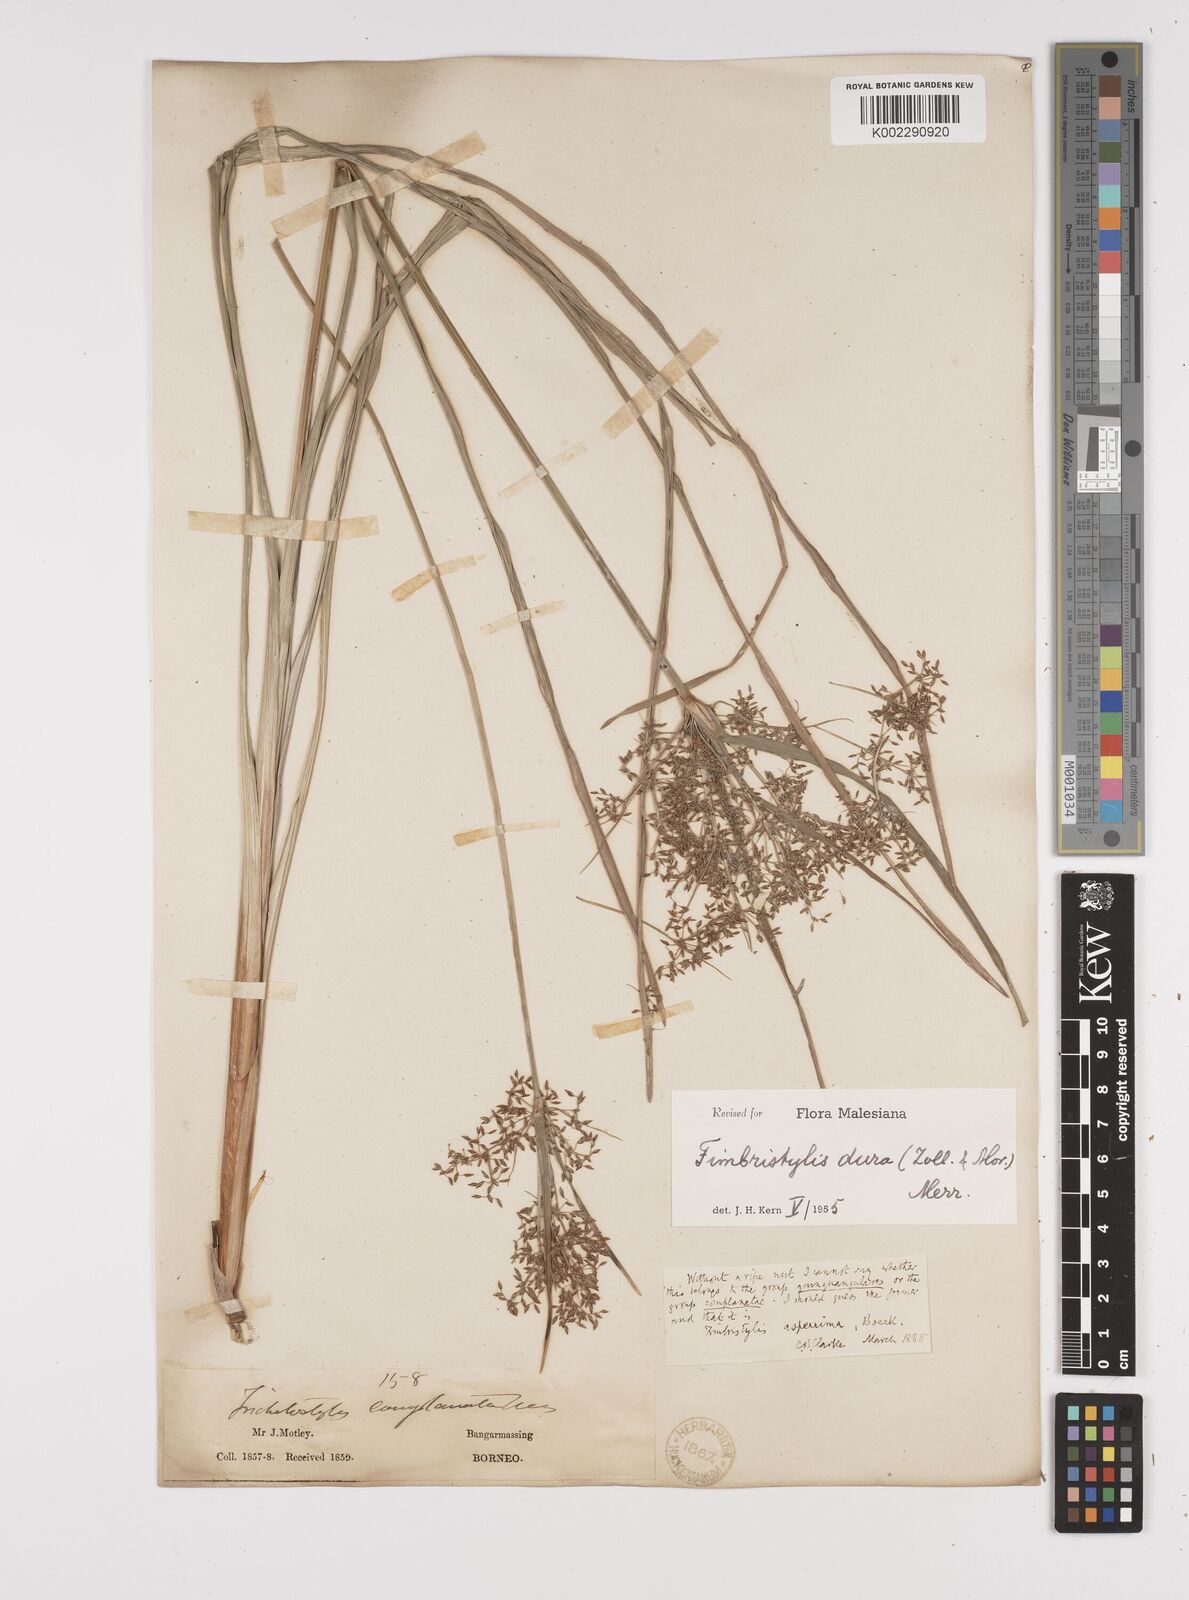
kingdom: Plantae
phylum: Tracheophyta
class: Liliopsida
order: Poales
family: Cyperaceae
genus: Fimbristylis
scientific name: Fimbristylis dura
